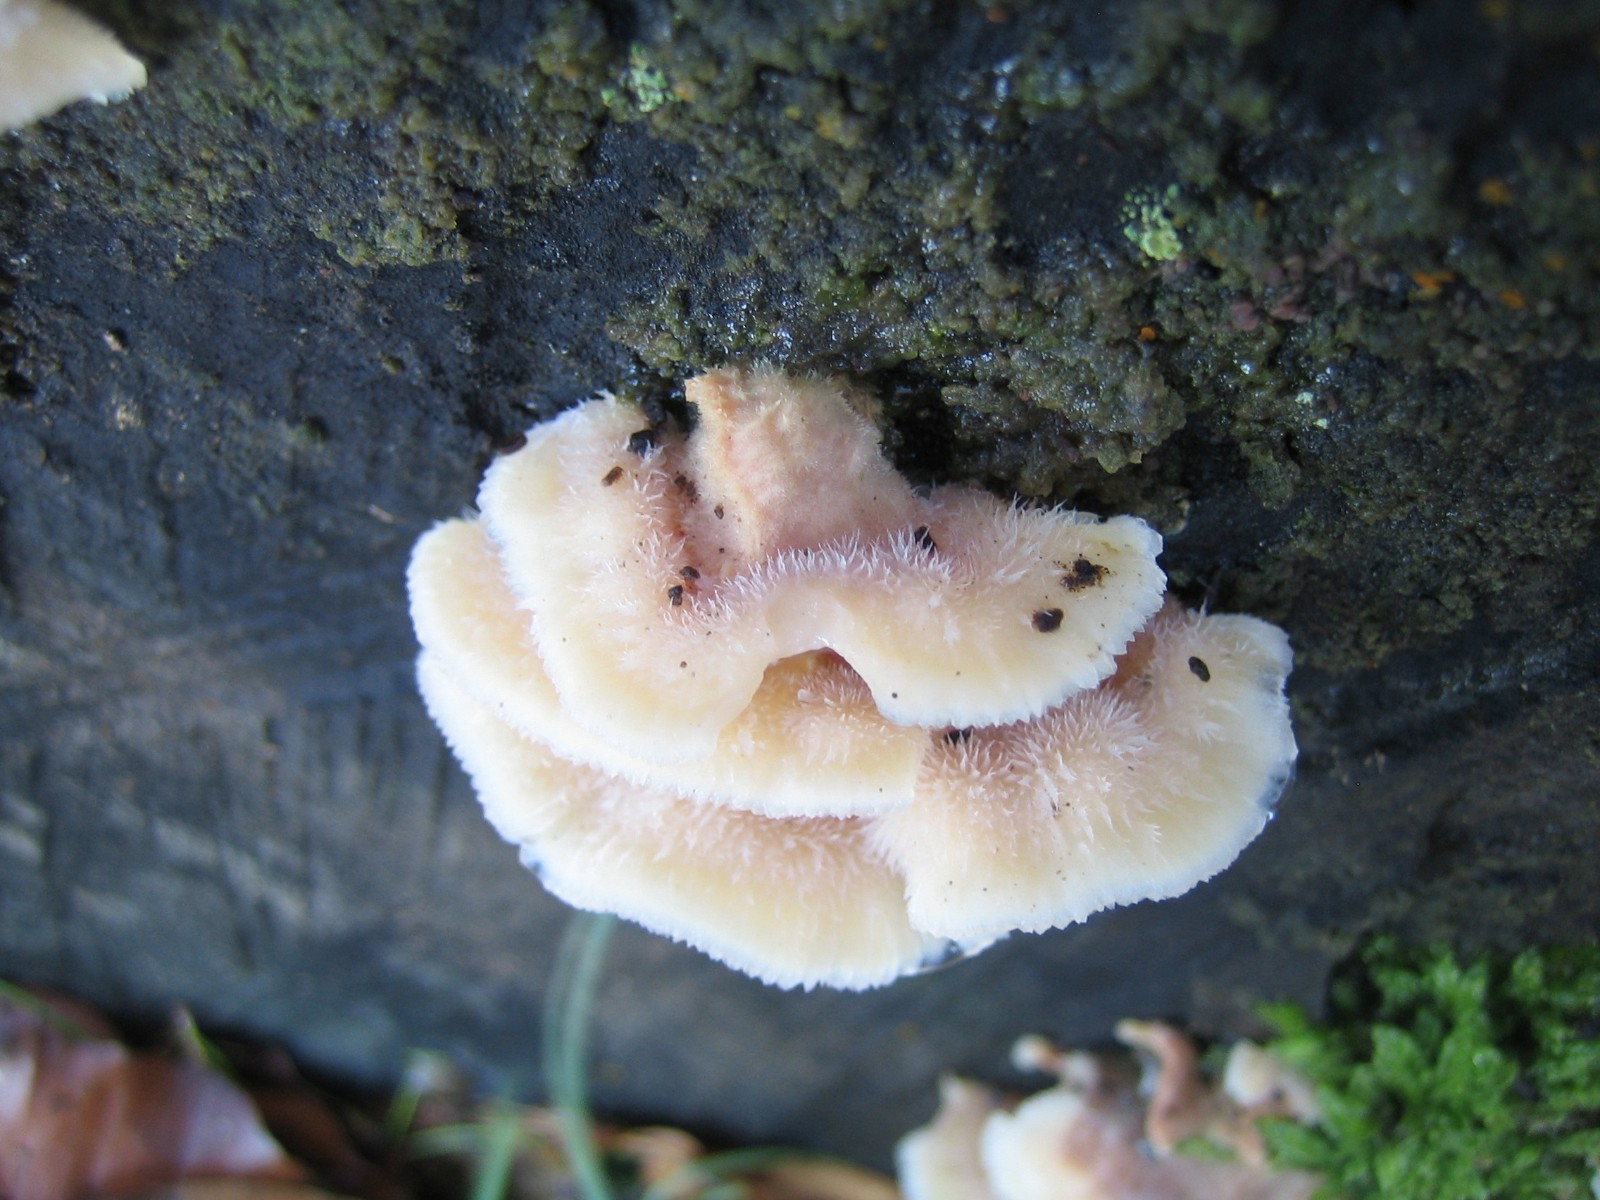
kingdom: Fungi
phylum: Basidiomycota
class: Agaricomycetes
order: Polyporales
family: Meruliaceae
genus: Phlebia
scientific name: Phlebia tremellosa
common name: bævrende åresvamp
